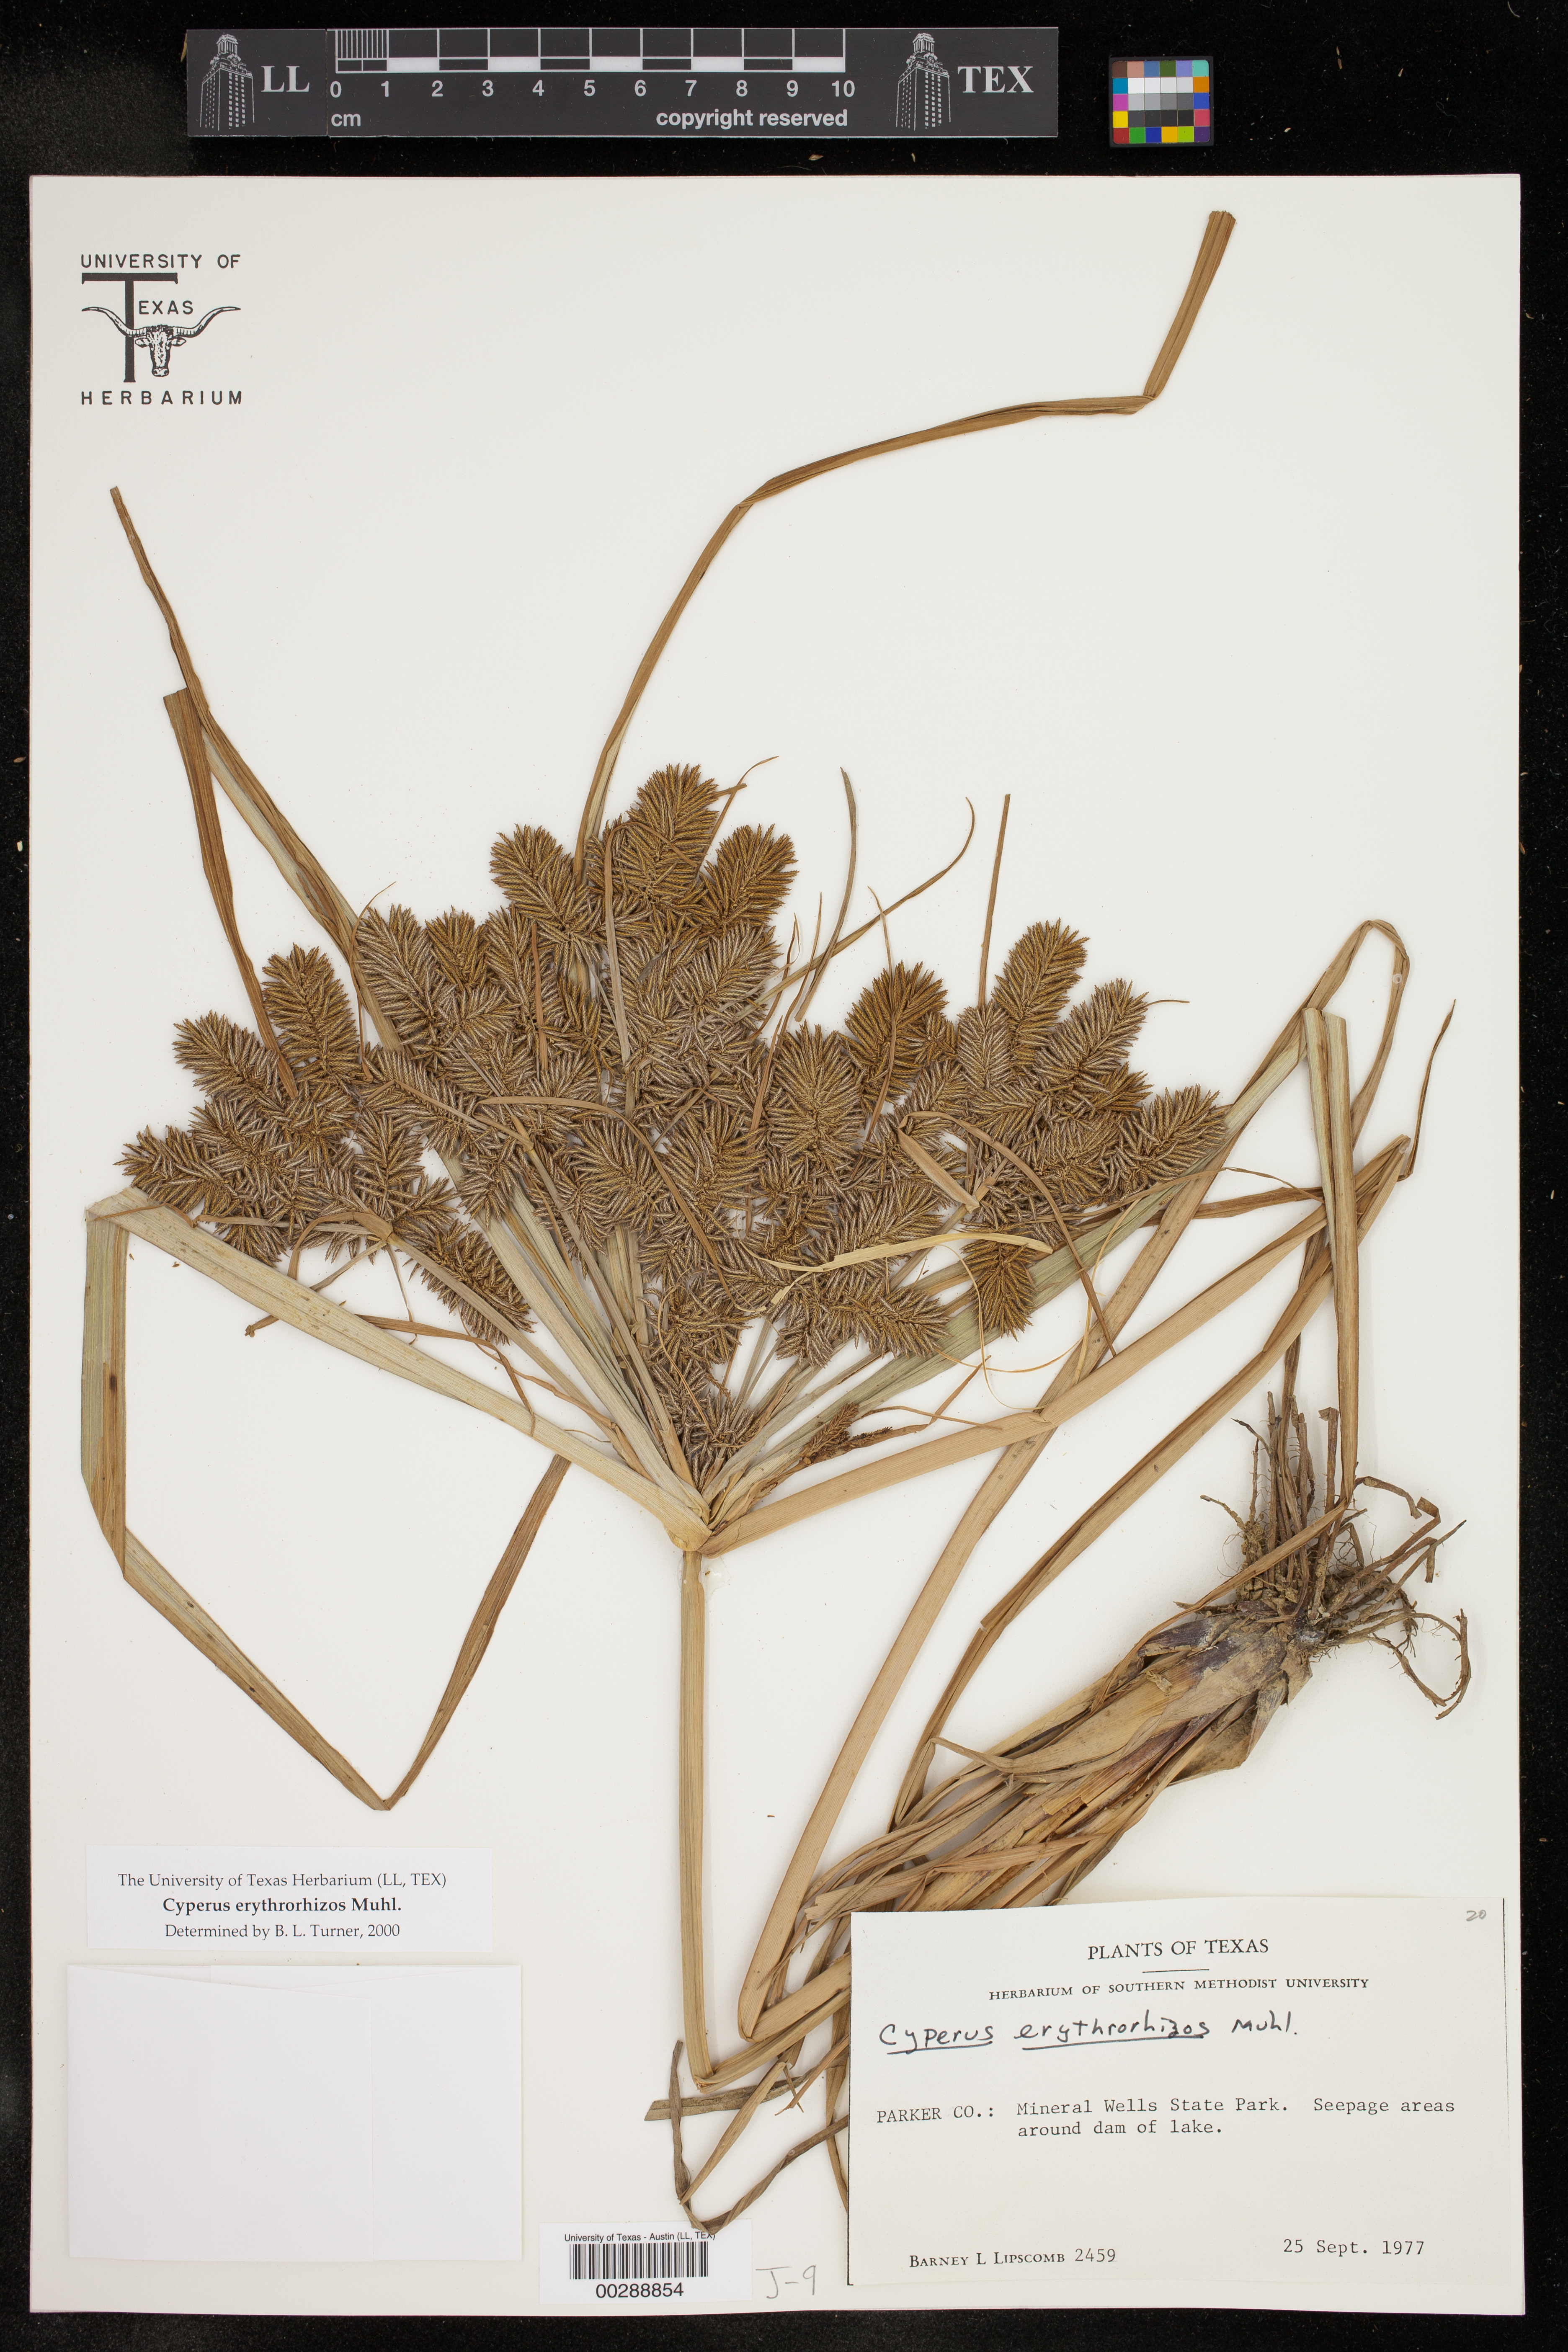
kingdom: Plantae
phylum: Tracheophyta
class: Liliopsida
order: Poales
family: Cyperaceae
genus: Cyperus
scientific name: Cyperus erythrorhizos
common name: Red-root flat sedge
